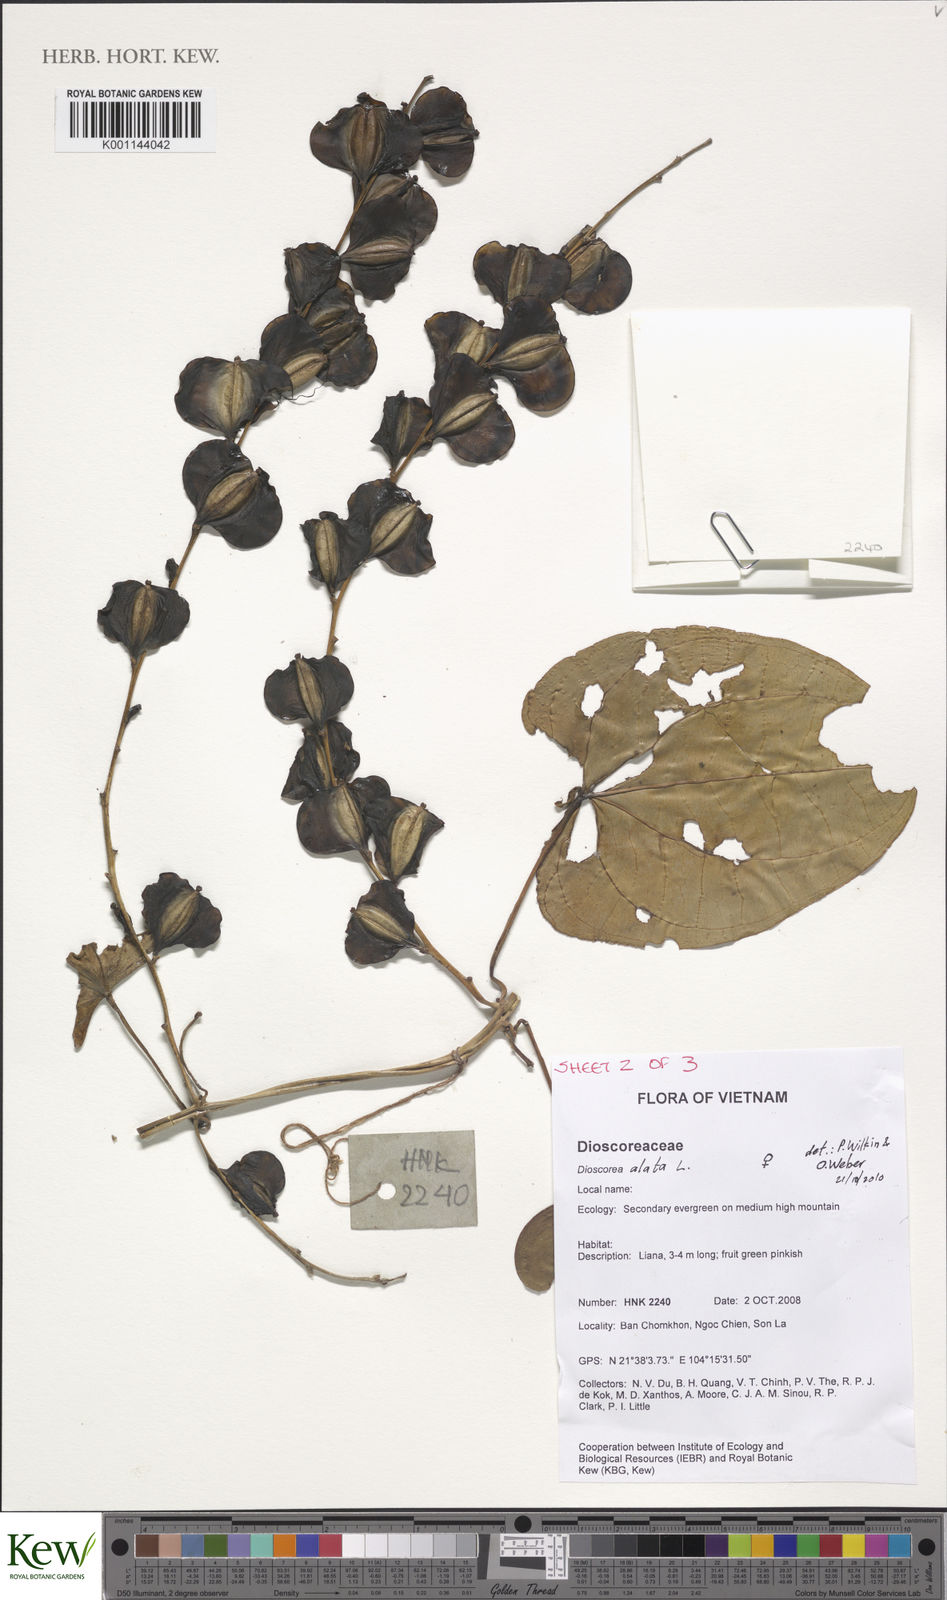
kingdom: Plantae
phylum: Tracheophyta
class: Liliopsida
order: Dioscoreales
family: Dioscoreaceae
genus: Dioscorea
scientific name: Dioscorea alata
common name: Water yam
